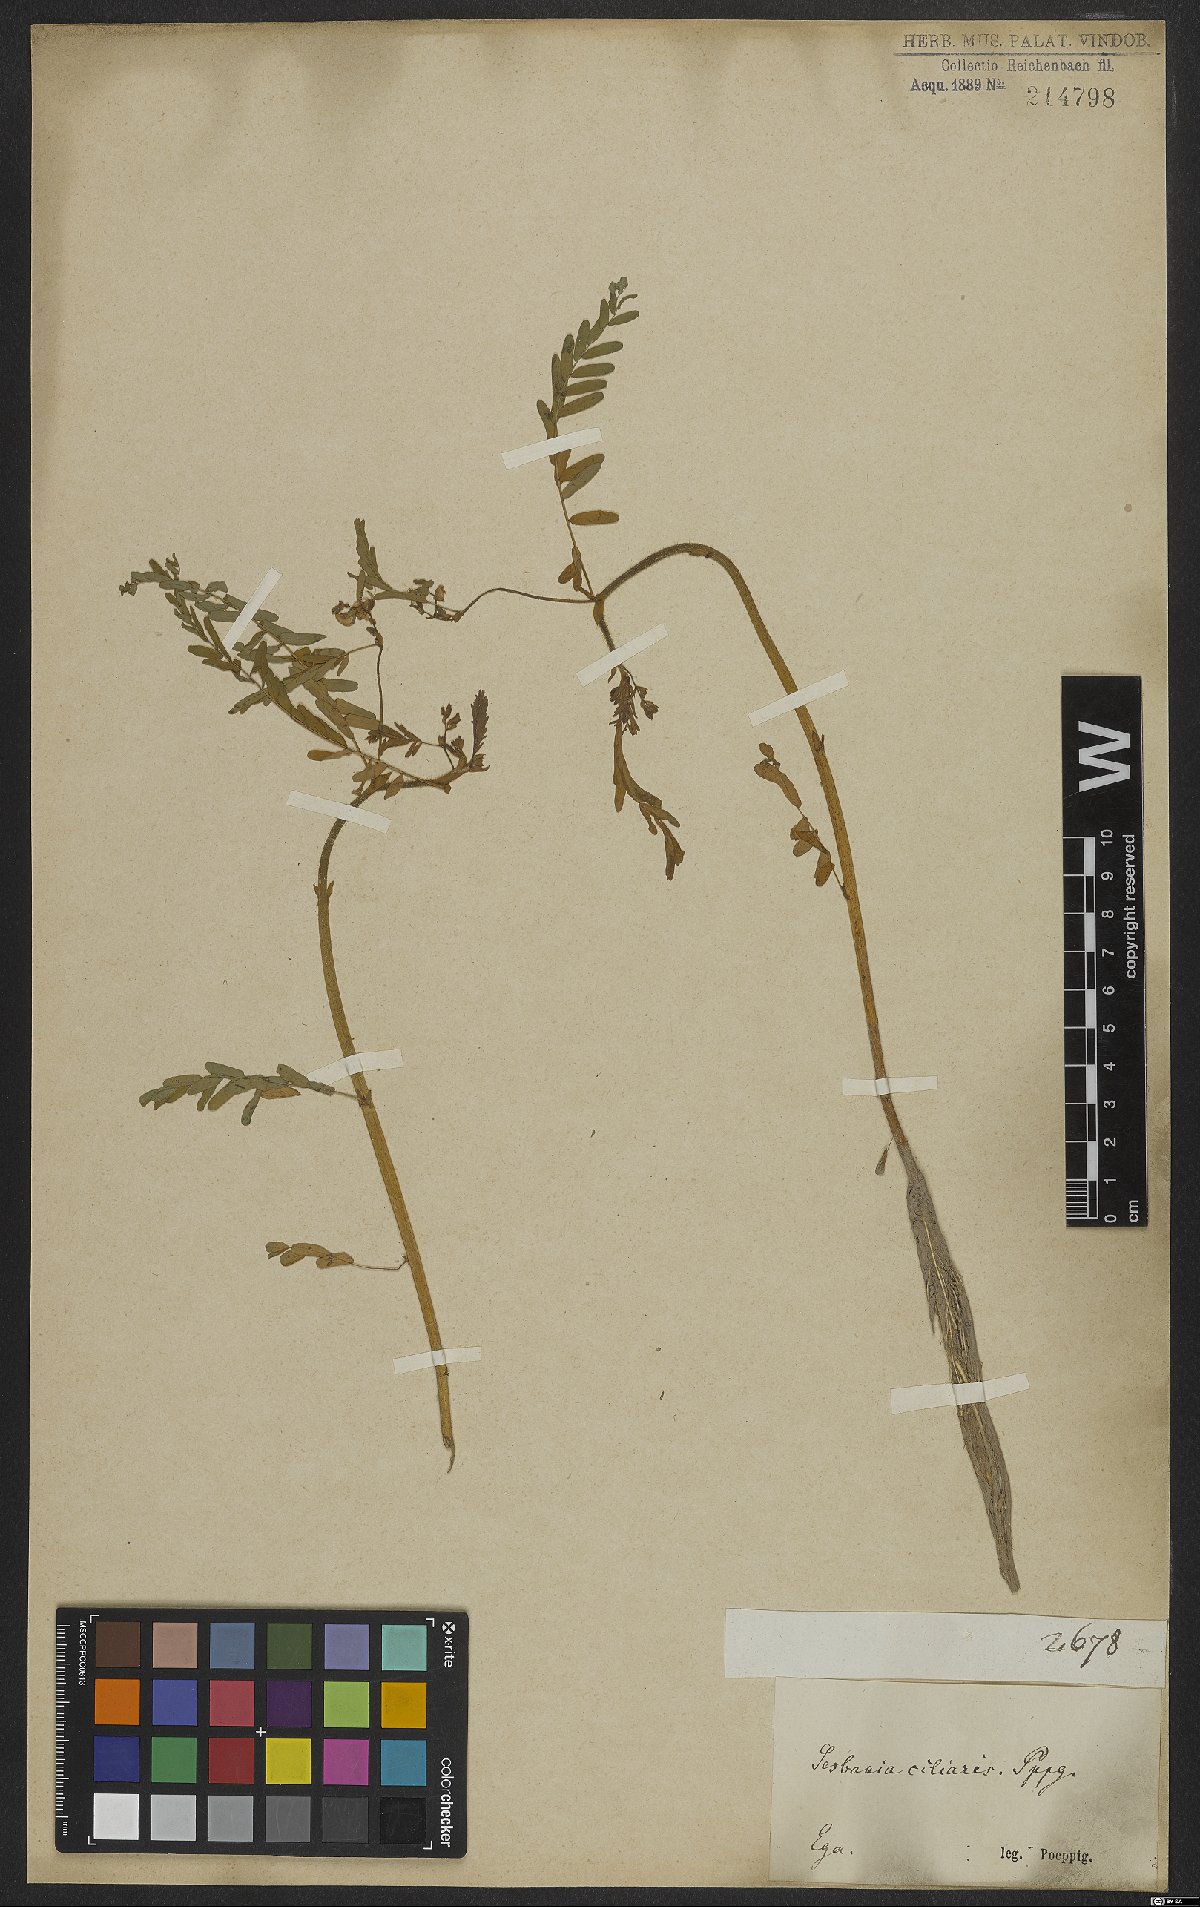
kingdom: Plantae
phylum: Tracheophyta
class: Magnoliopsida
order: Fabales
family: Fabaceae
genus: Aeschynomene
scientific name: Aeschynomene
